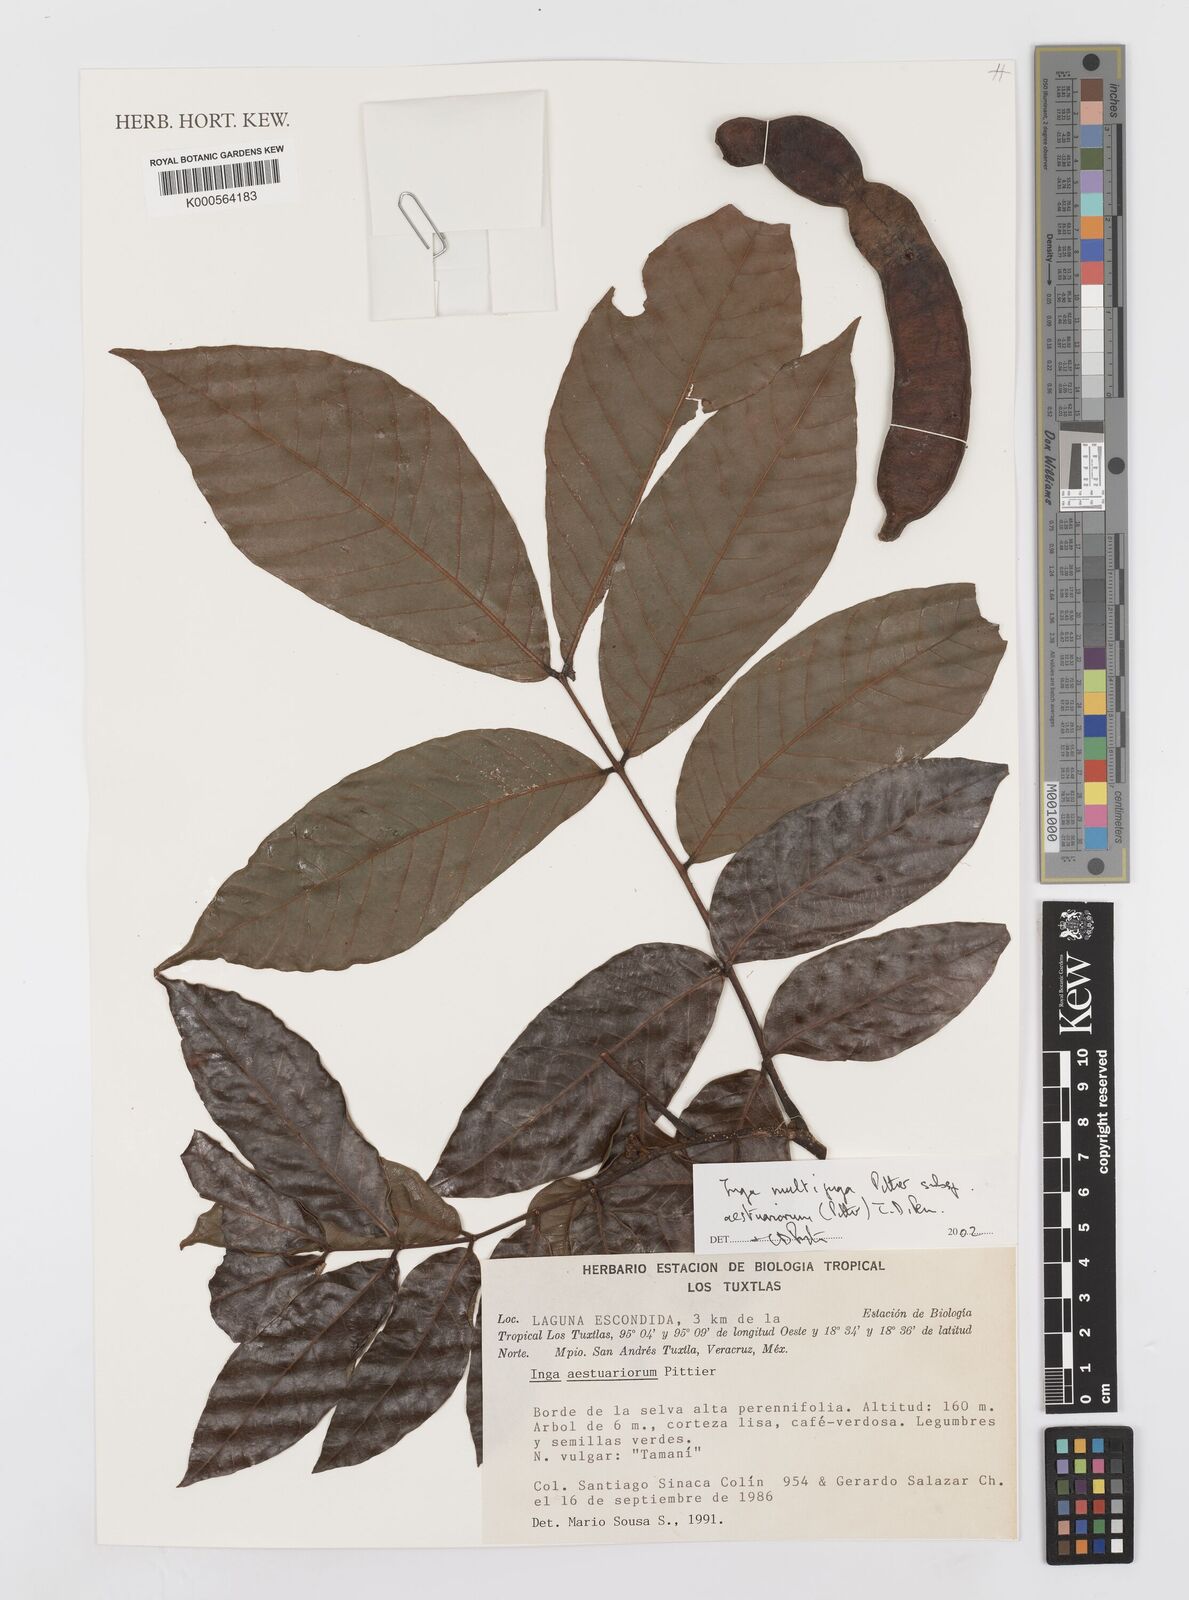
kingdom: Plantae
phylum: Tracheophyta
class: Magnoliopsida
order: Fabales
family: Fabaceae
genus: Inga
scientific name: Inga multijuga
